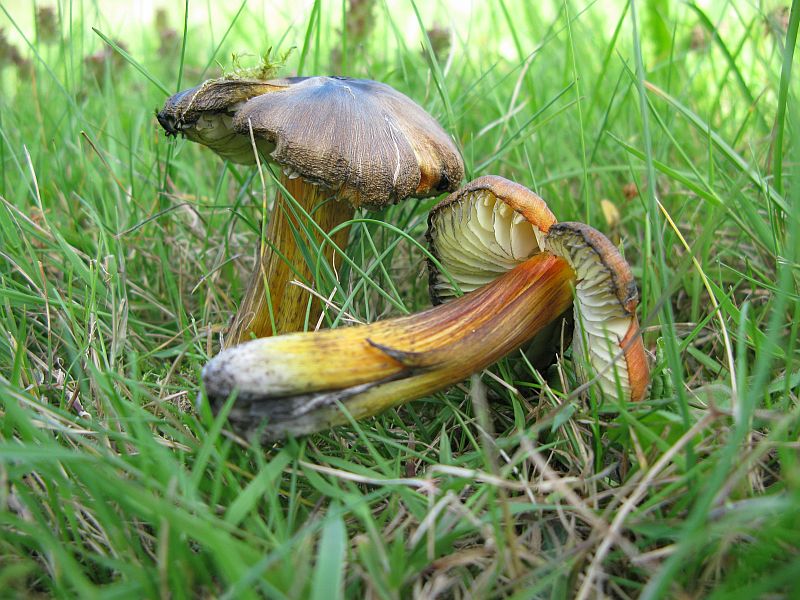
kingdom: Fungi
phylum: Basidiomycota
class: Agaricomycetes
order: Agaricales
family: Hygrophoraceae
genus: Hygrocybe
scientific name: Hygrocybe conica
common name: kegle-vokshat
